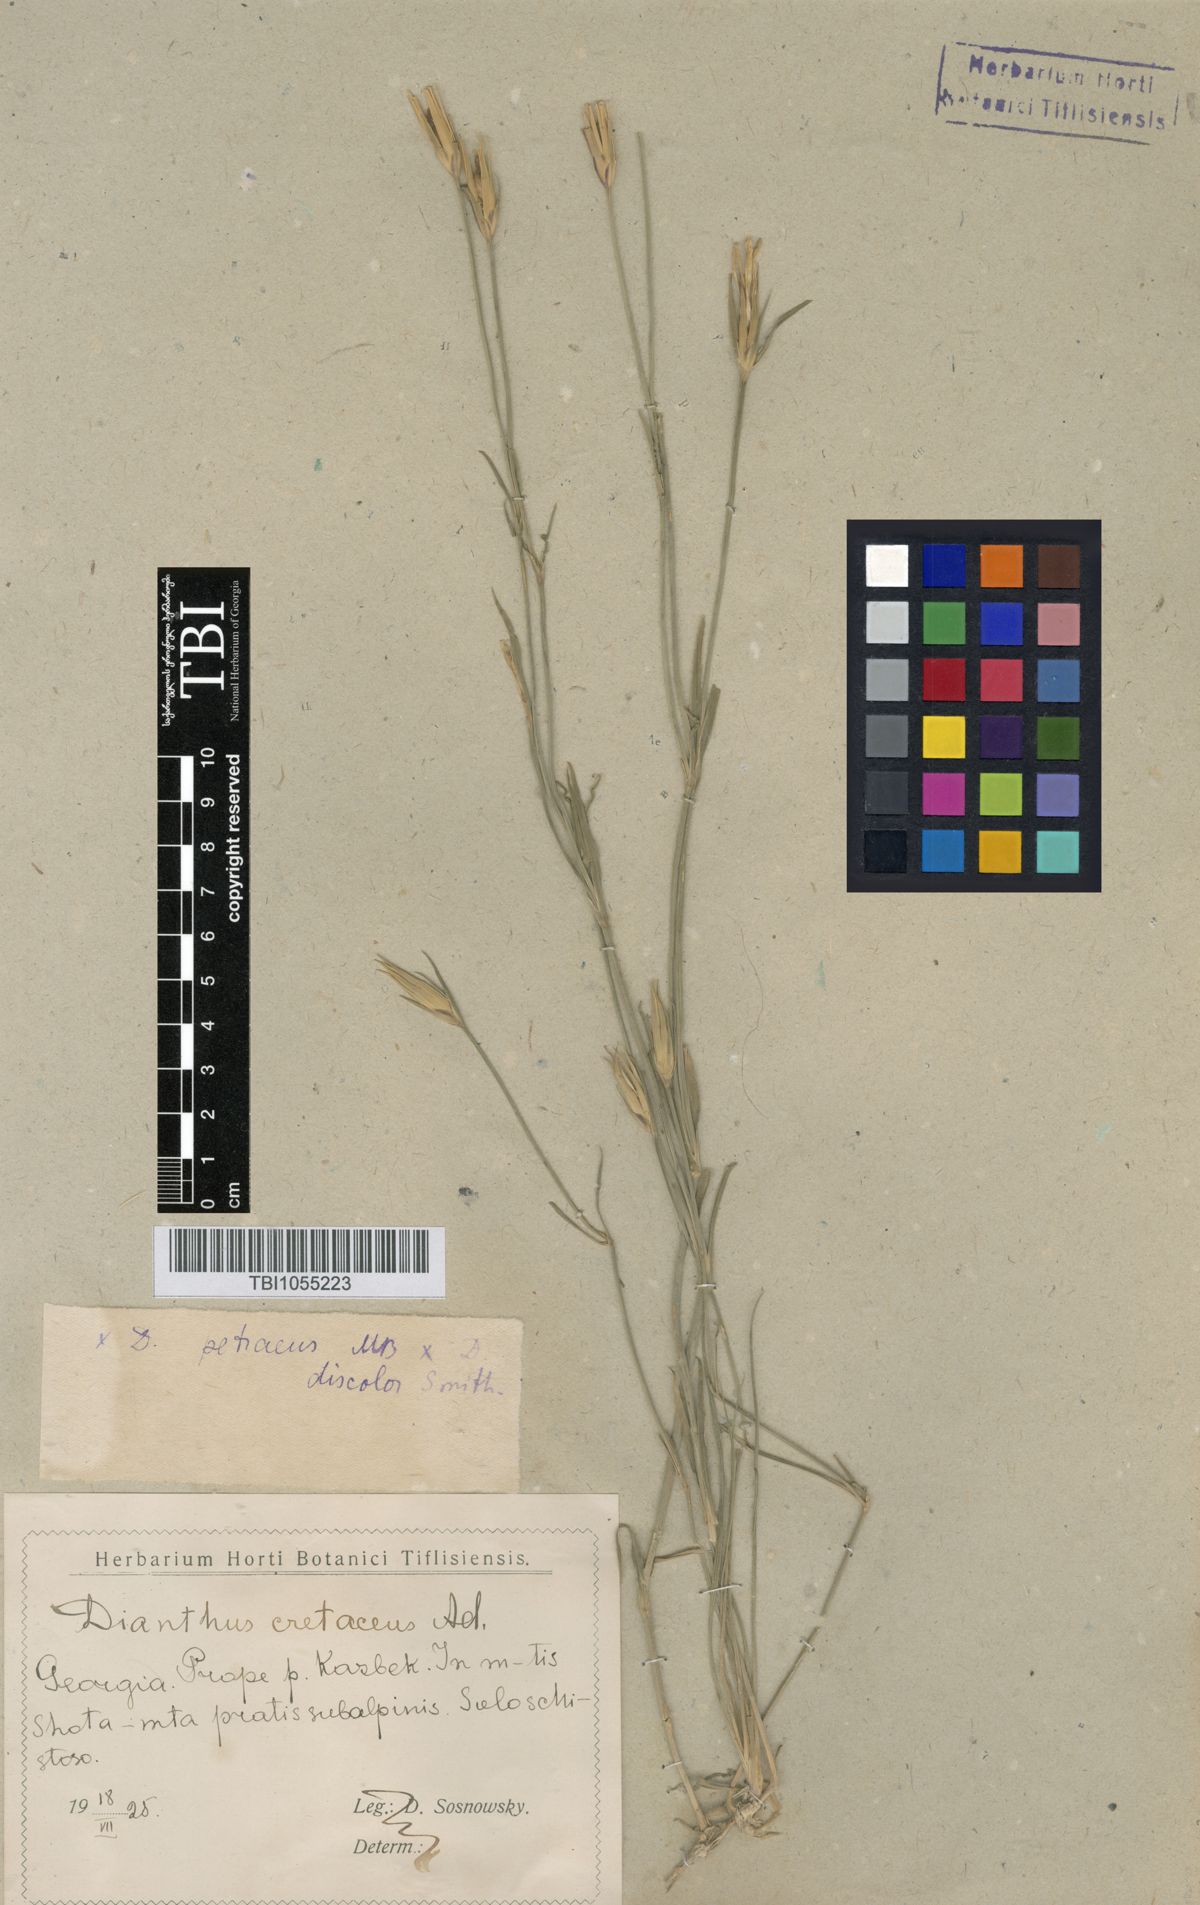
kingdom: Plantae
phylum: Tracheophyta
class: Magnoliopsida
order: Caryophyllales
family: Caryophyllaceae
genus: Dianthus
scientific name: Dianthus cretaceus
